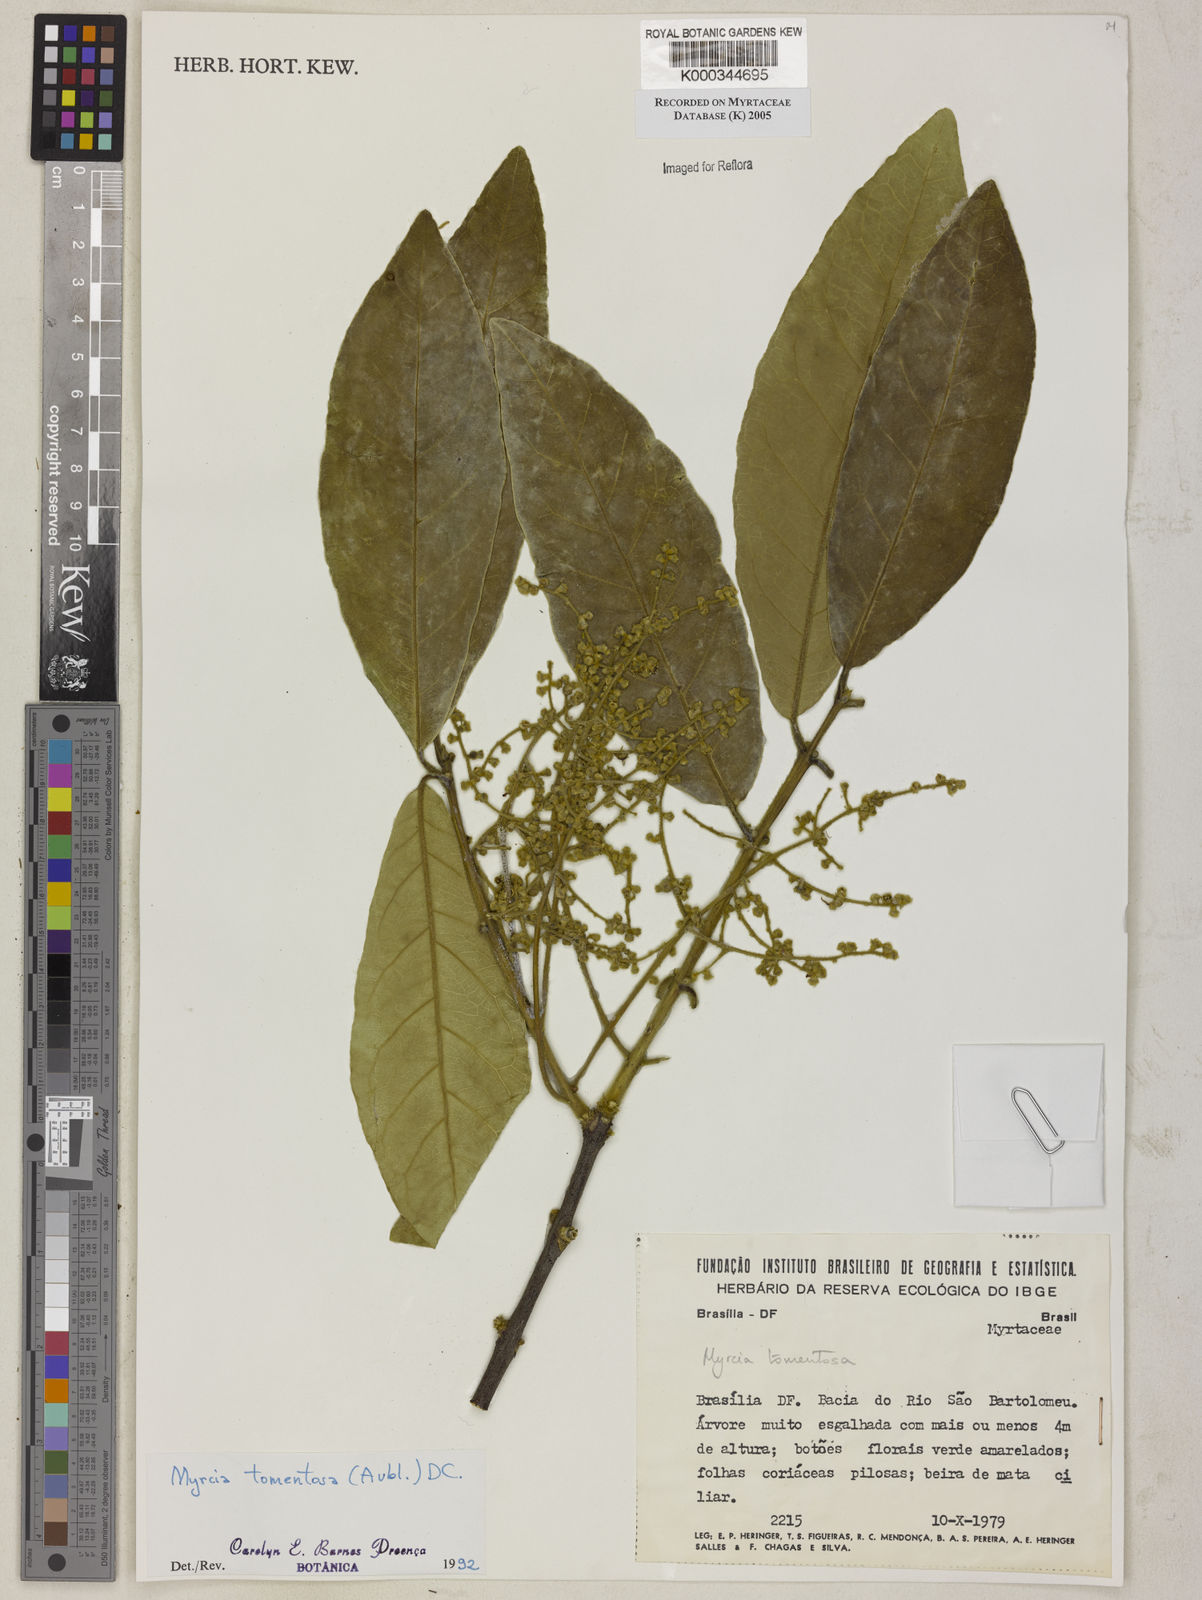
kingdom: Plantae
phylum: Tracheophyta
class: Magnoliopsida
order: Myrtales
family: Myrtaceae
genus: Myrcia
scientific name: Myrcia tomentosa
